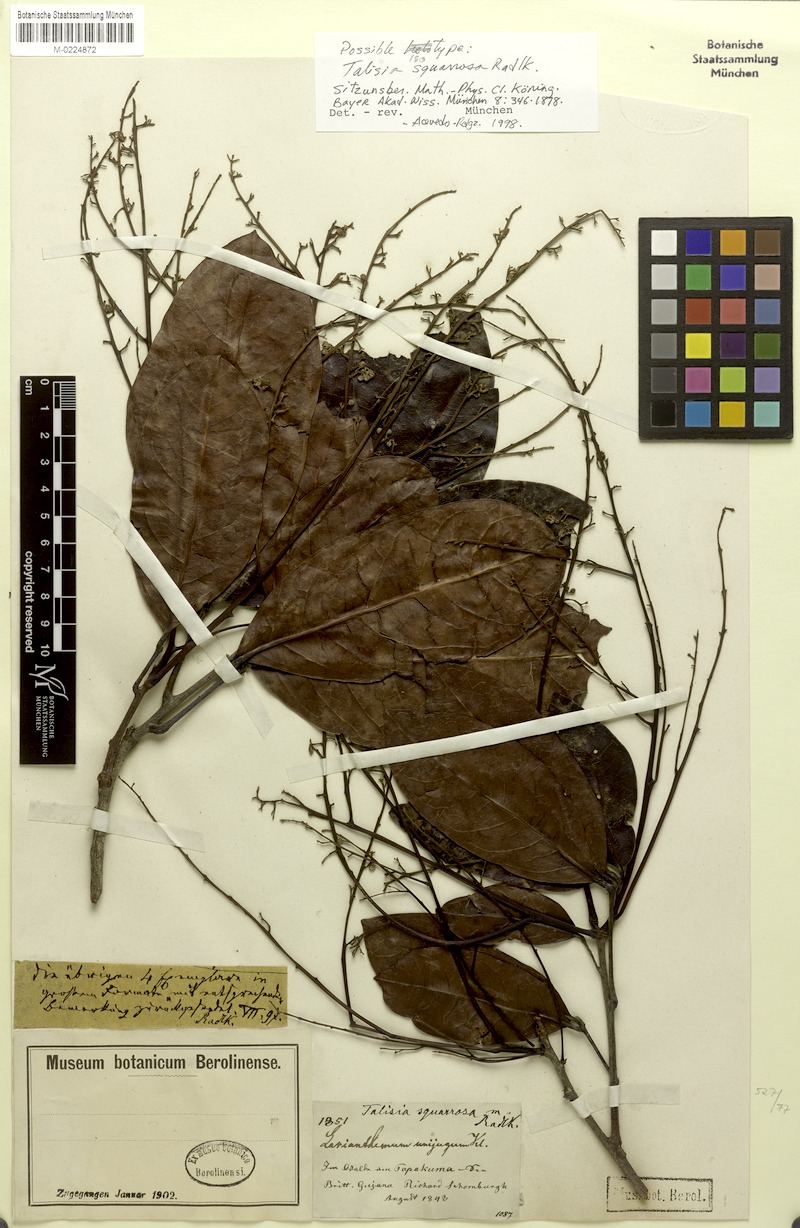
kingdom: Plantae
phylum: Tracheophyta
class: Magnoliopsida
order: Sapindales
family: Sapindaceae
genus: Talisia
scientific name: Talisia squarrosa
